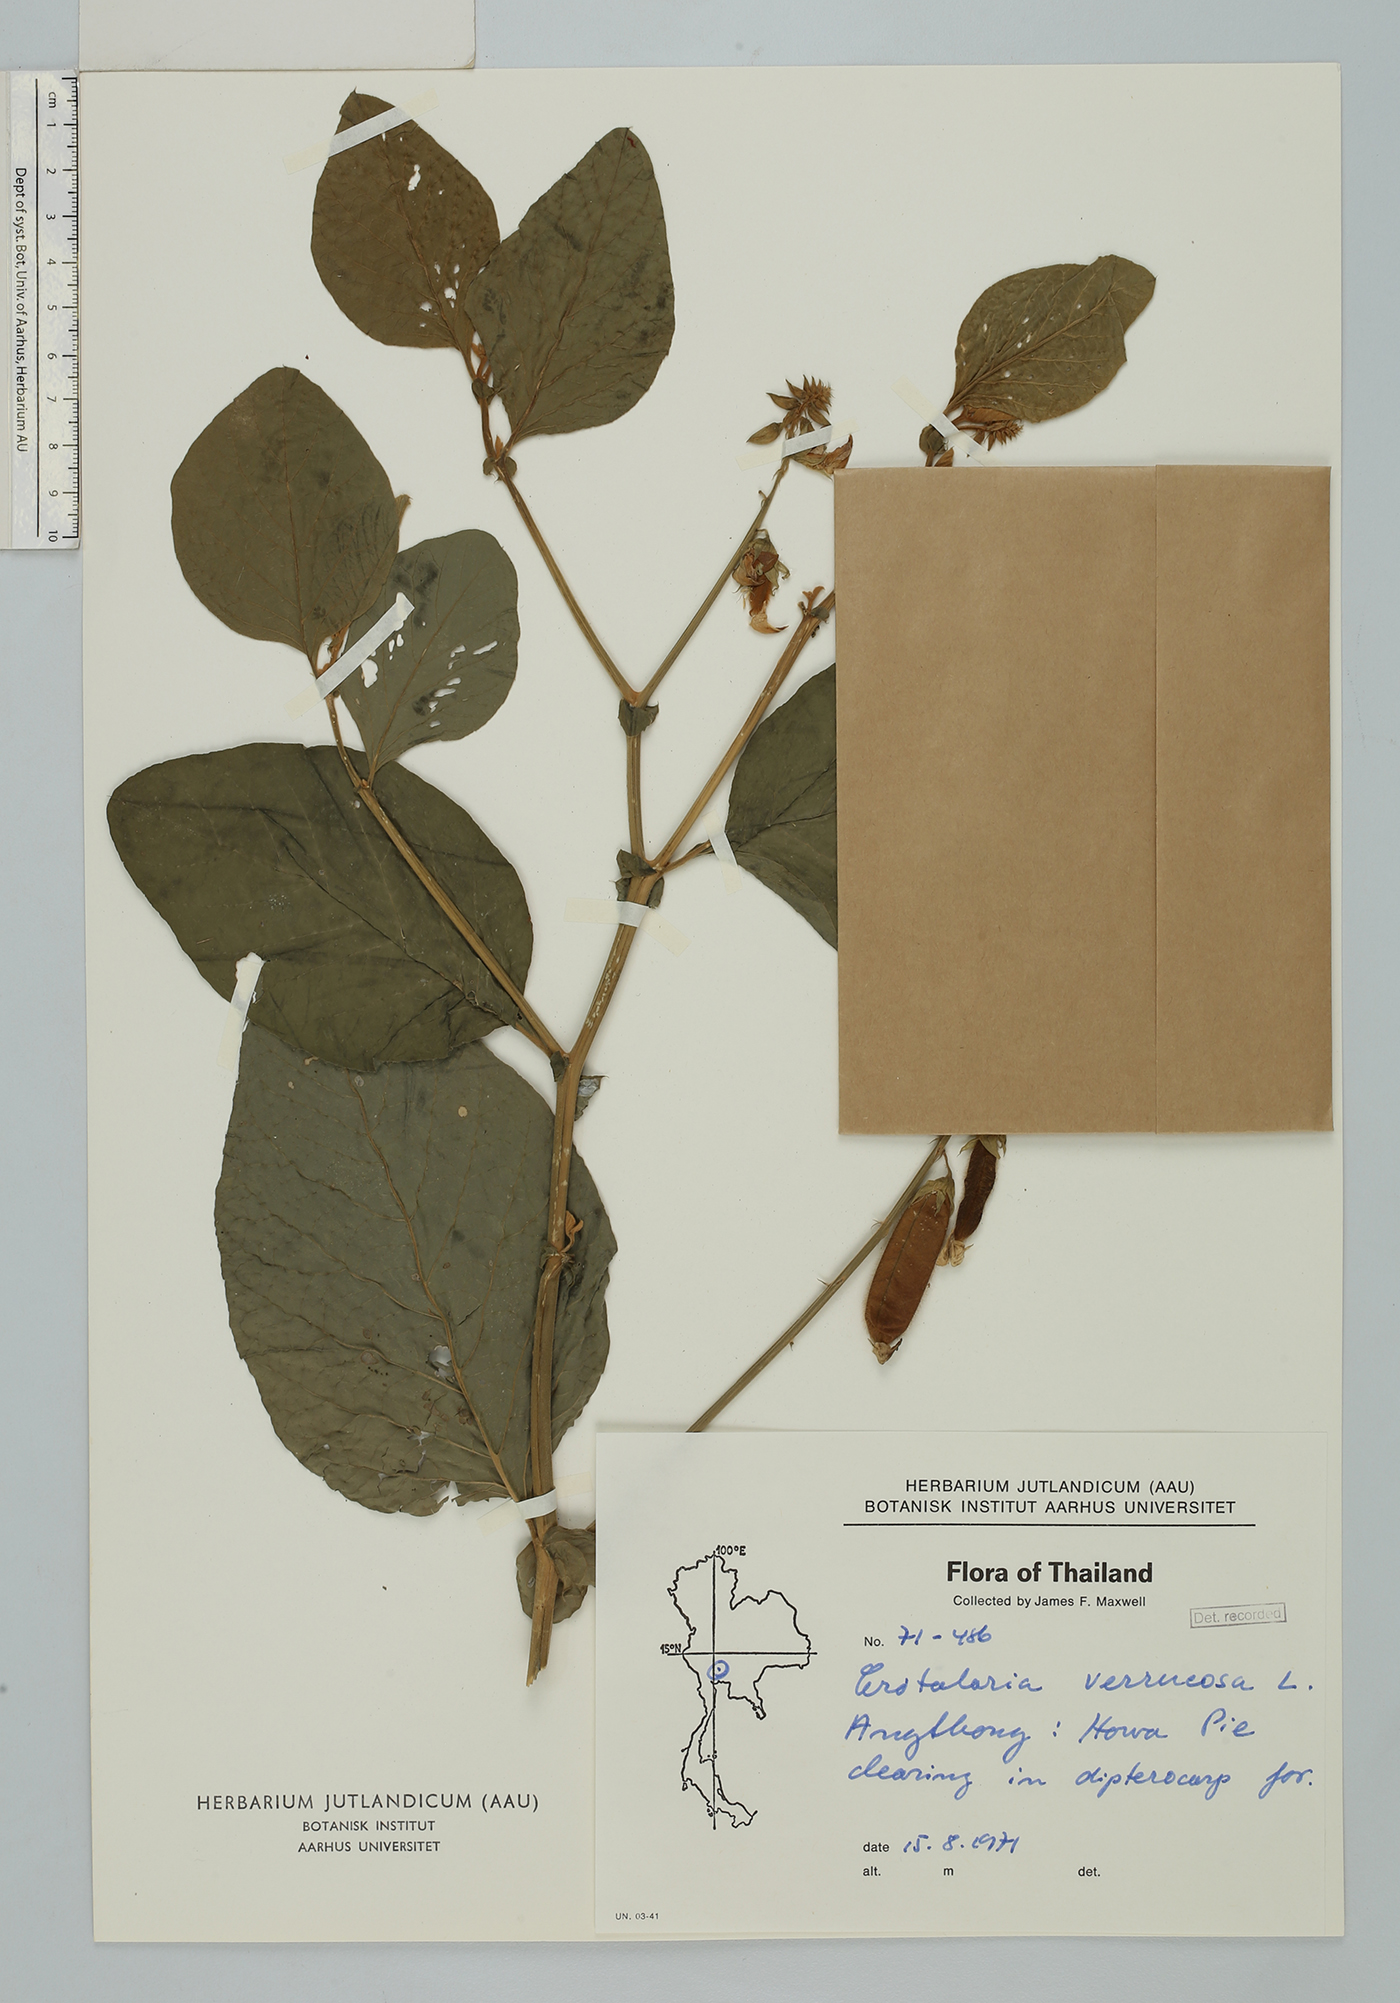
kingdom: Plantae
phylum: Tracheophyta
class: Magnoliopsida
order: Fabales
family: Fabaceae
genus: Crotalaria
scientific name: Crotalaria verrucosa
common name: Blue rattlesnake
